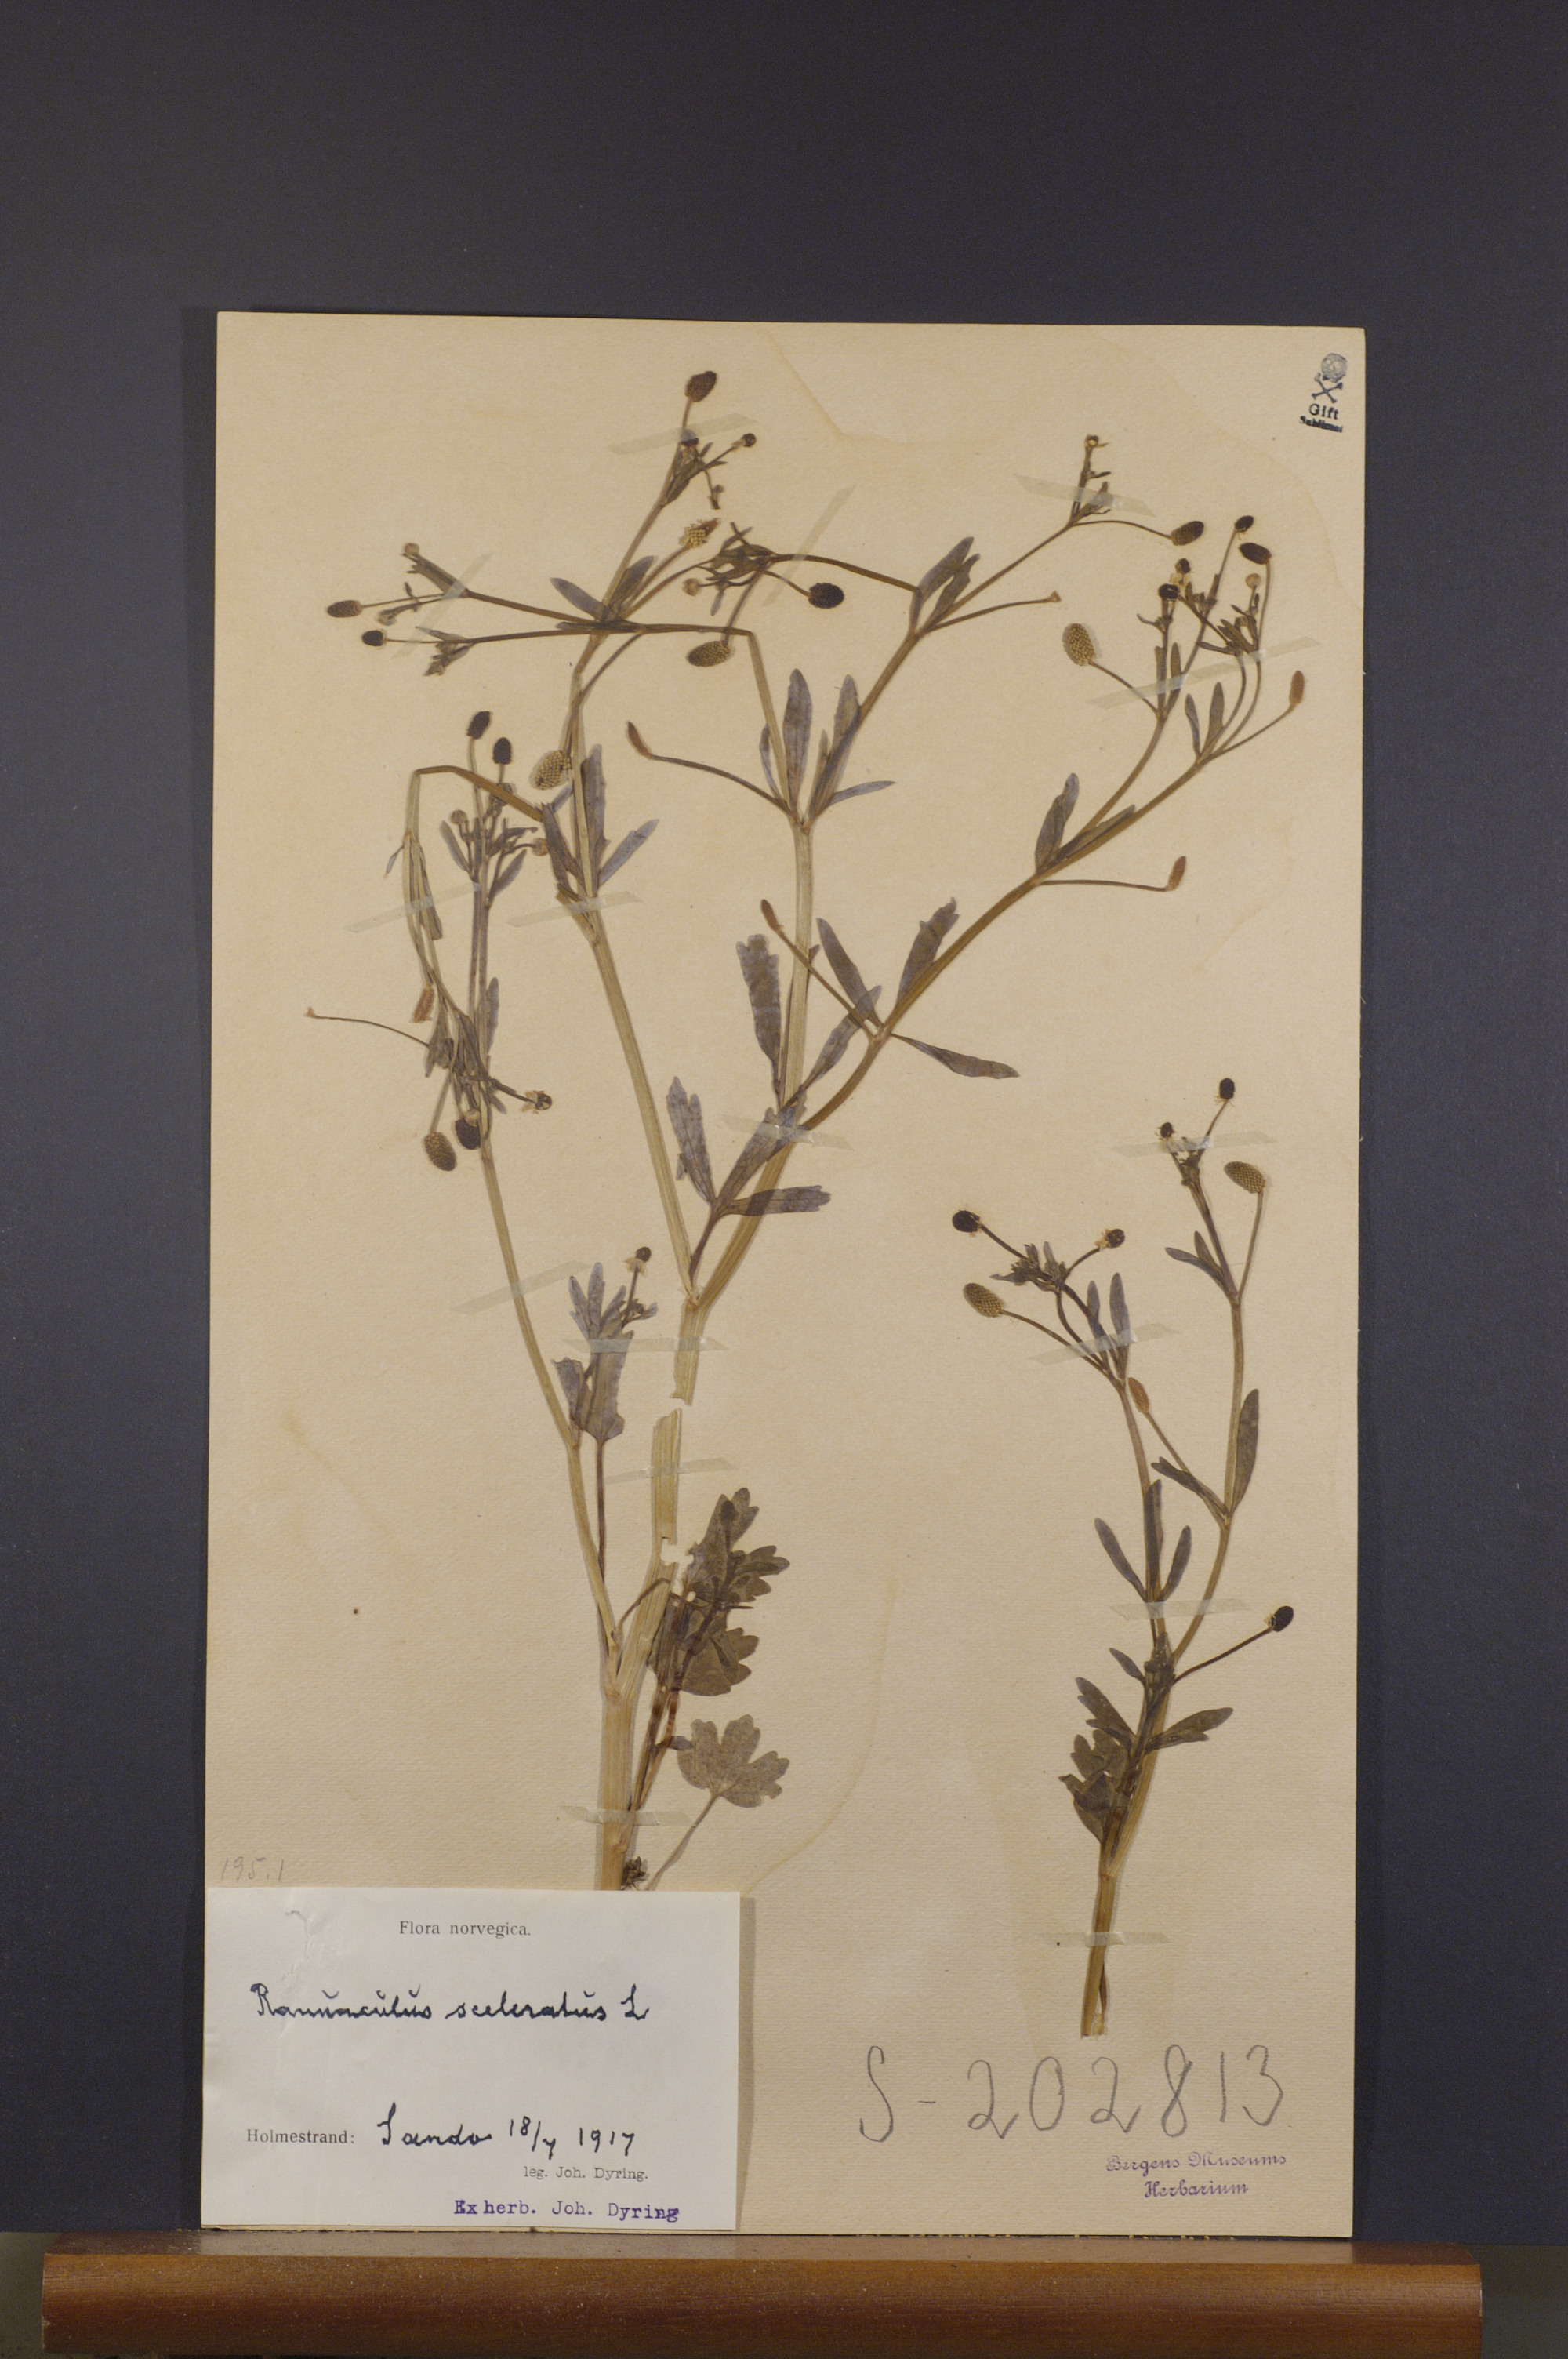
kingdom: Plantae
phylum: Tracheophyta
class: Magnoliopsida
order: Ranunculales
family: Ranunculaceae
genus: Ranunculus
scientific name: Ranunculus sceleratus
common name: Celery-leaved buttercup
